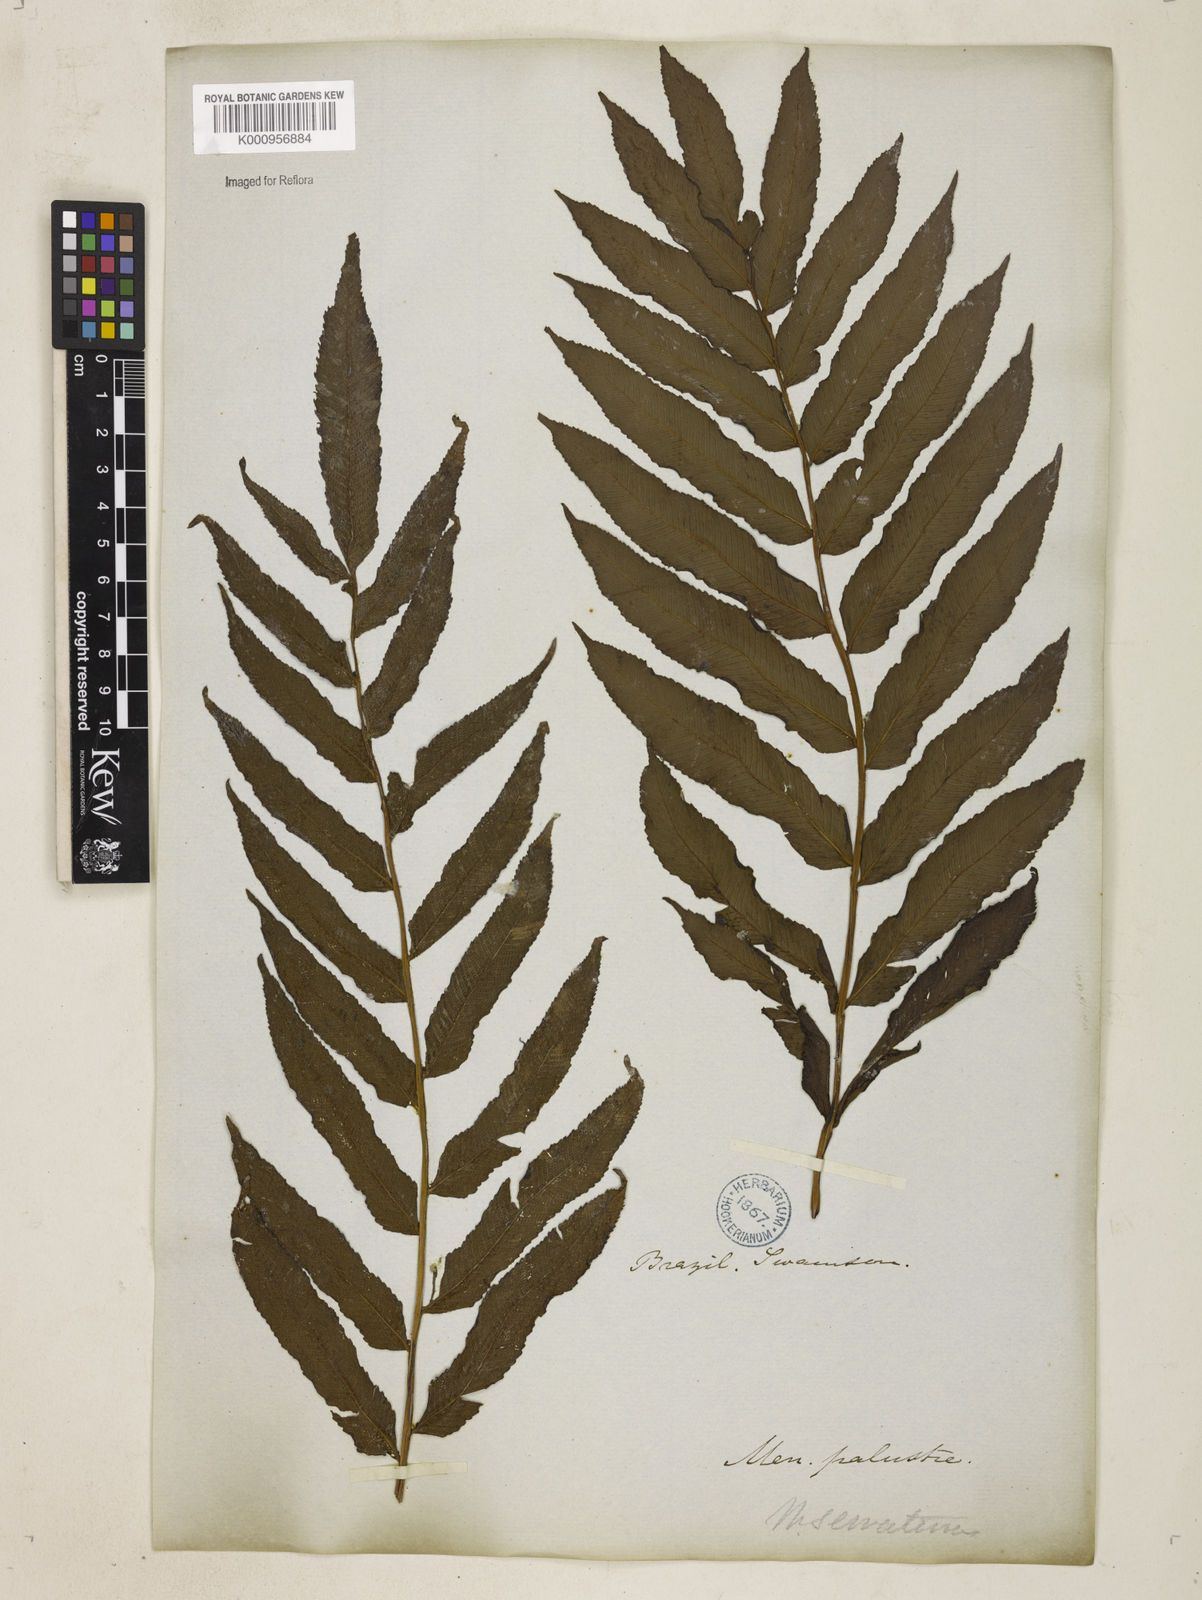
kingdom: Plantae
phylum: Tracheophyta
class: Polypodiopsida
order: Polypodiales
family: Thelypteridaceae
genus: Meniscium
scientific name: Meniscium serratum
